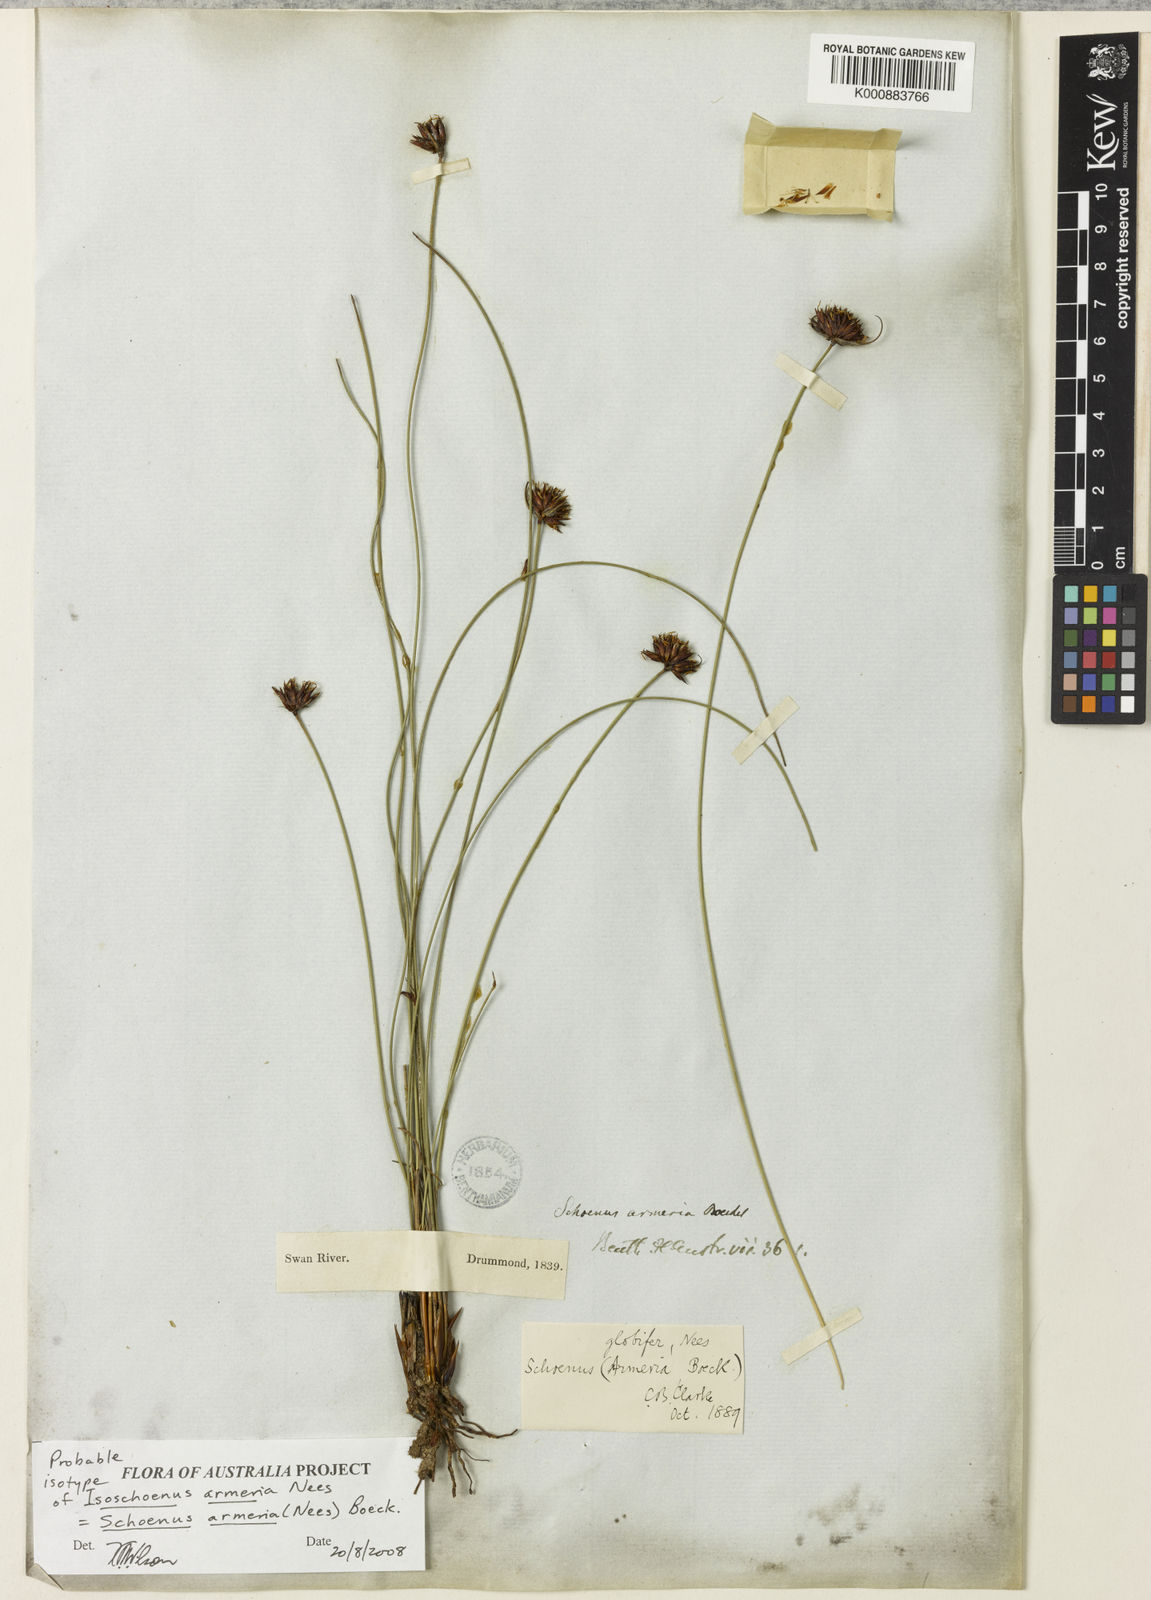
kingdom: Plantae
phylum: Tracheophyta
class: Liliopsida
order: Poales
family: Cyperaceae
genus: Schoenus
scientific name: Schoenus globifer
